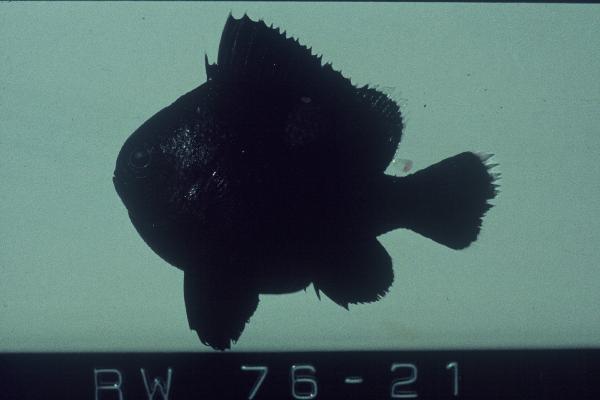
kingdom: Animalia
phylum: Chordata
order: Perciformes
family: Pomacentridae
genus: Dascyllus
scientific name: Dascyllus trimaculatus
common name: Threespot dascyllus
